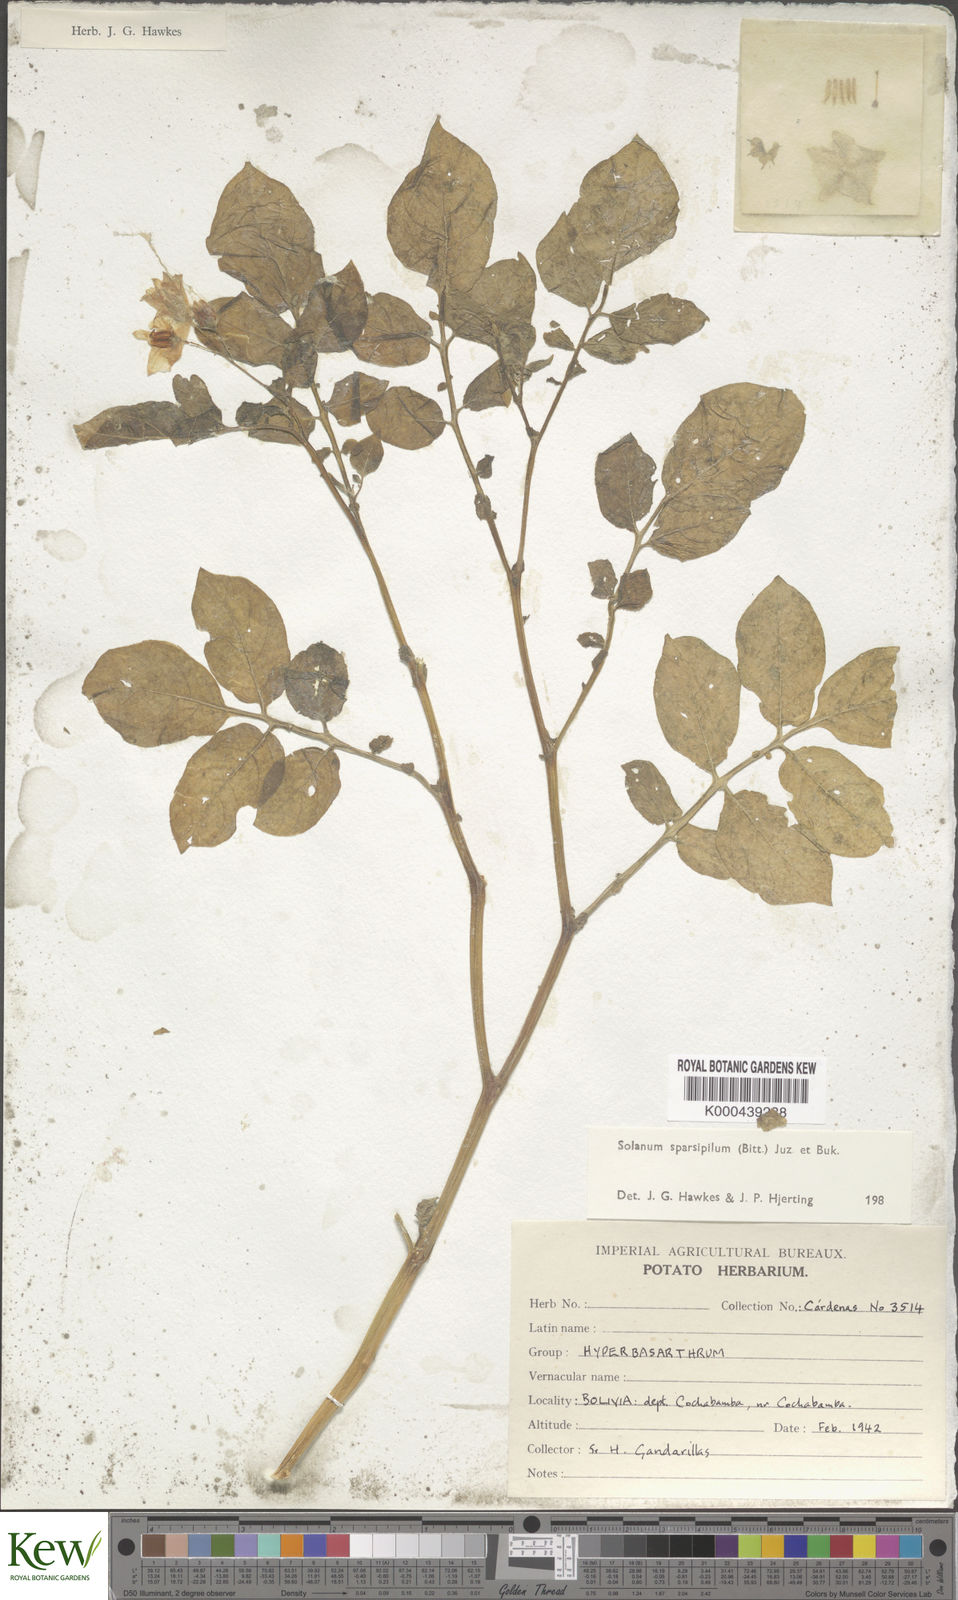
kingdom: Plantae
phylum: Tracheophyta
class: Magnoliopsida
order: Solanales
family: Solanaceae
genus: Solanum
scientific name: Solanum brevicaule
